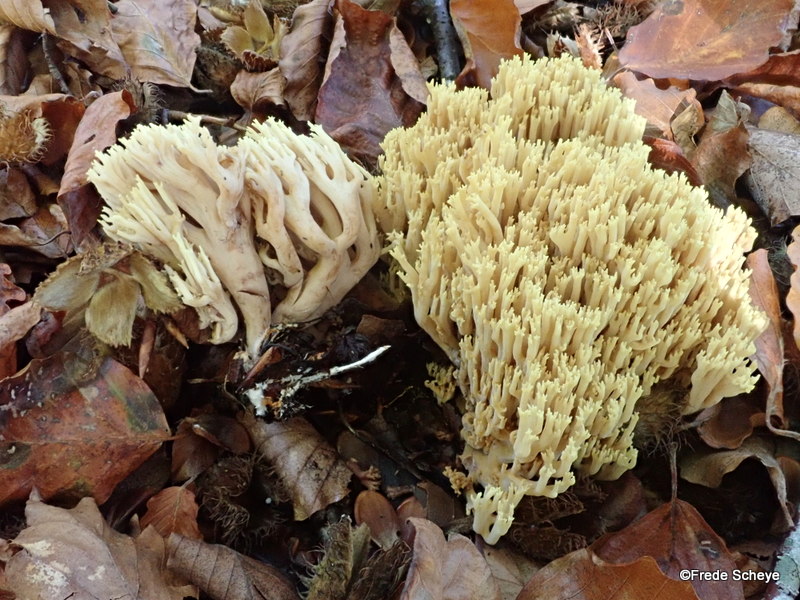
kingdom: Fungi
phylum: Basidiomycota
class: Agaricomycetes
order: Gomphales
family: Gomphaceae
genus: Ramaria
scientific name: Ramaria stricta
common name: rank koralsvamp
